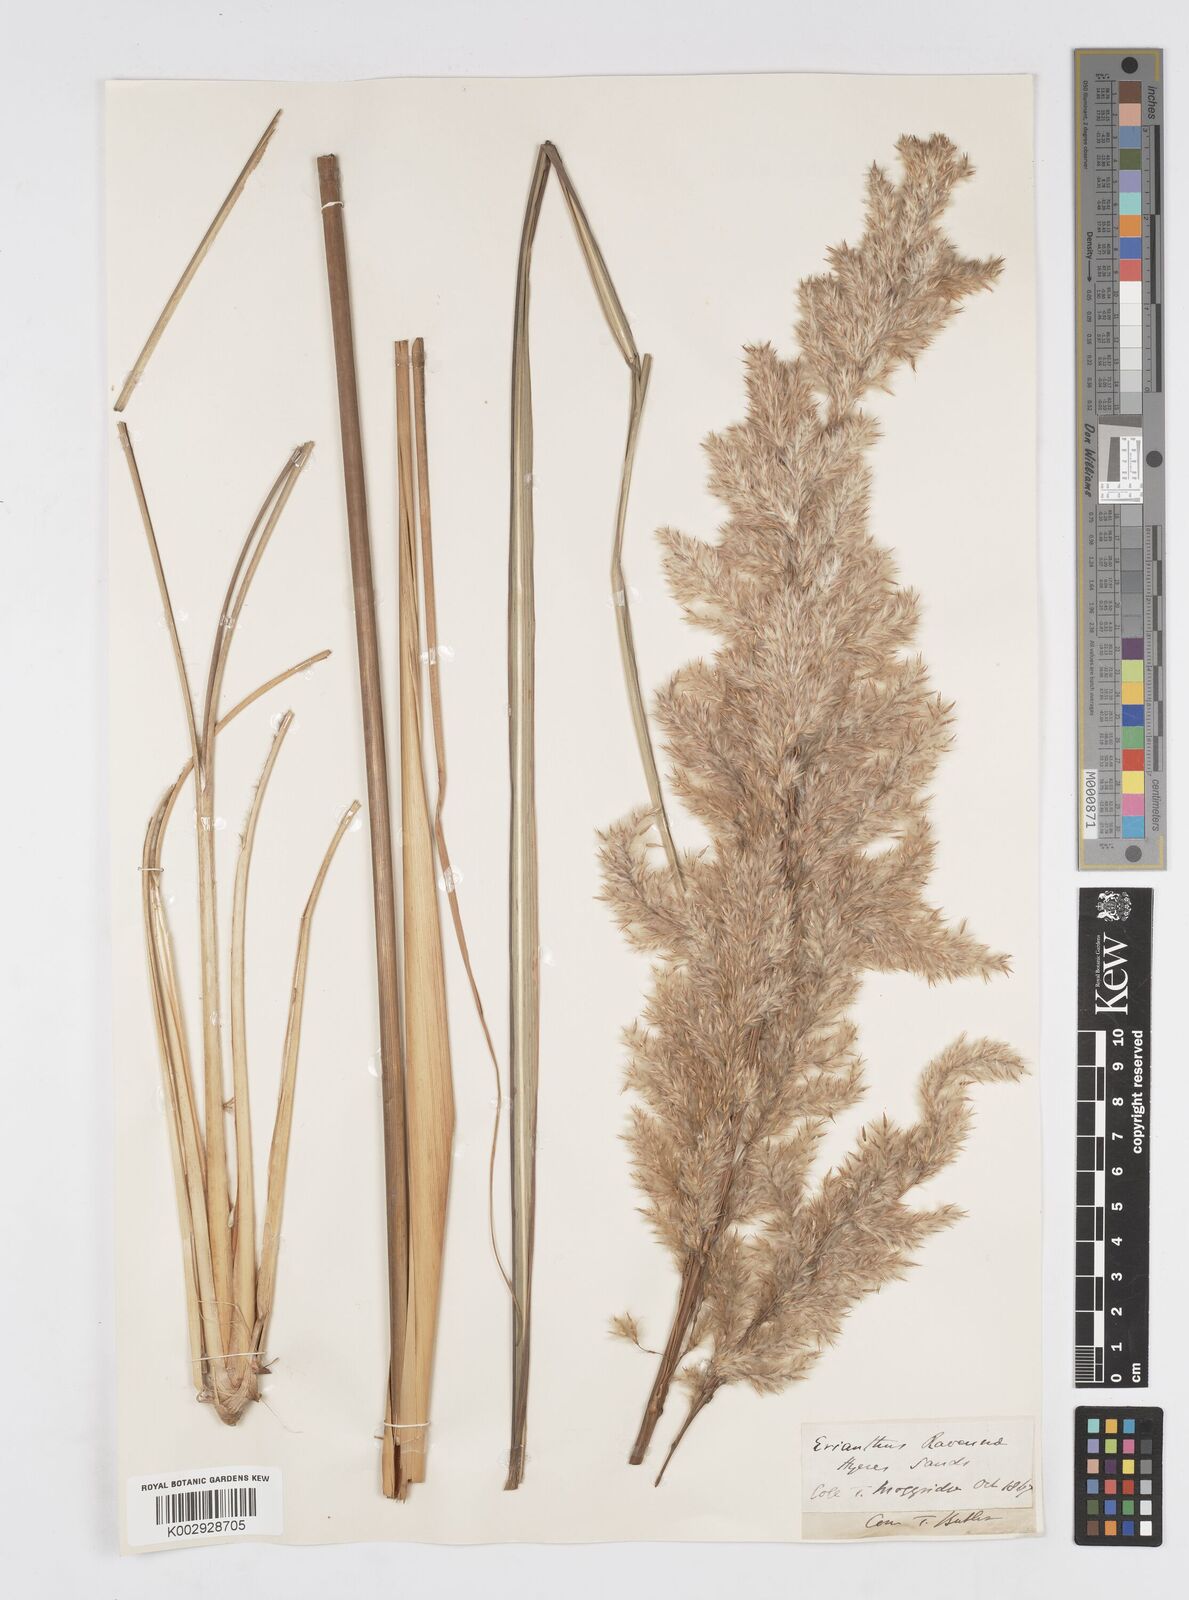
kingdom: Plantae
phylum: Tracheophyta
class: Liliopsida
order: Poales
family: Poaceae
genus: Saccharum
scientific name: Saccharum
